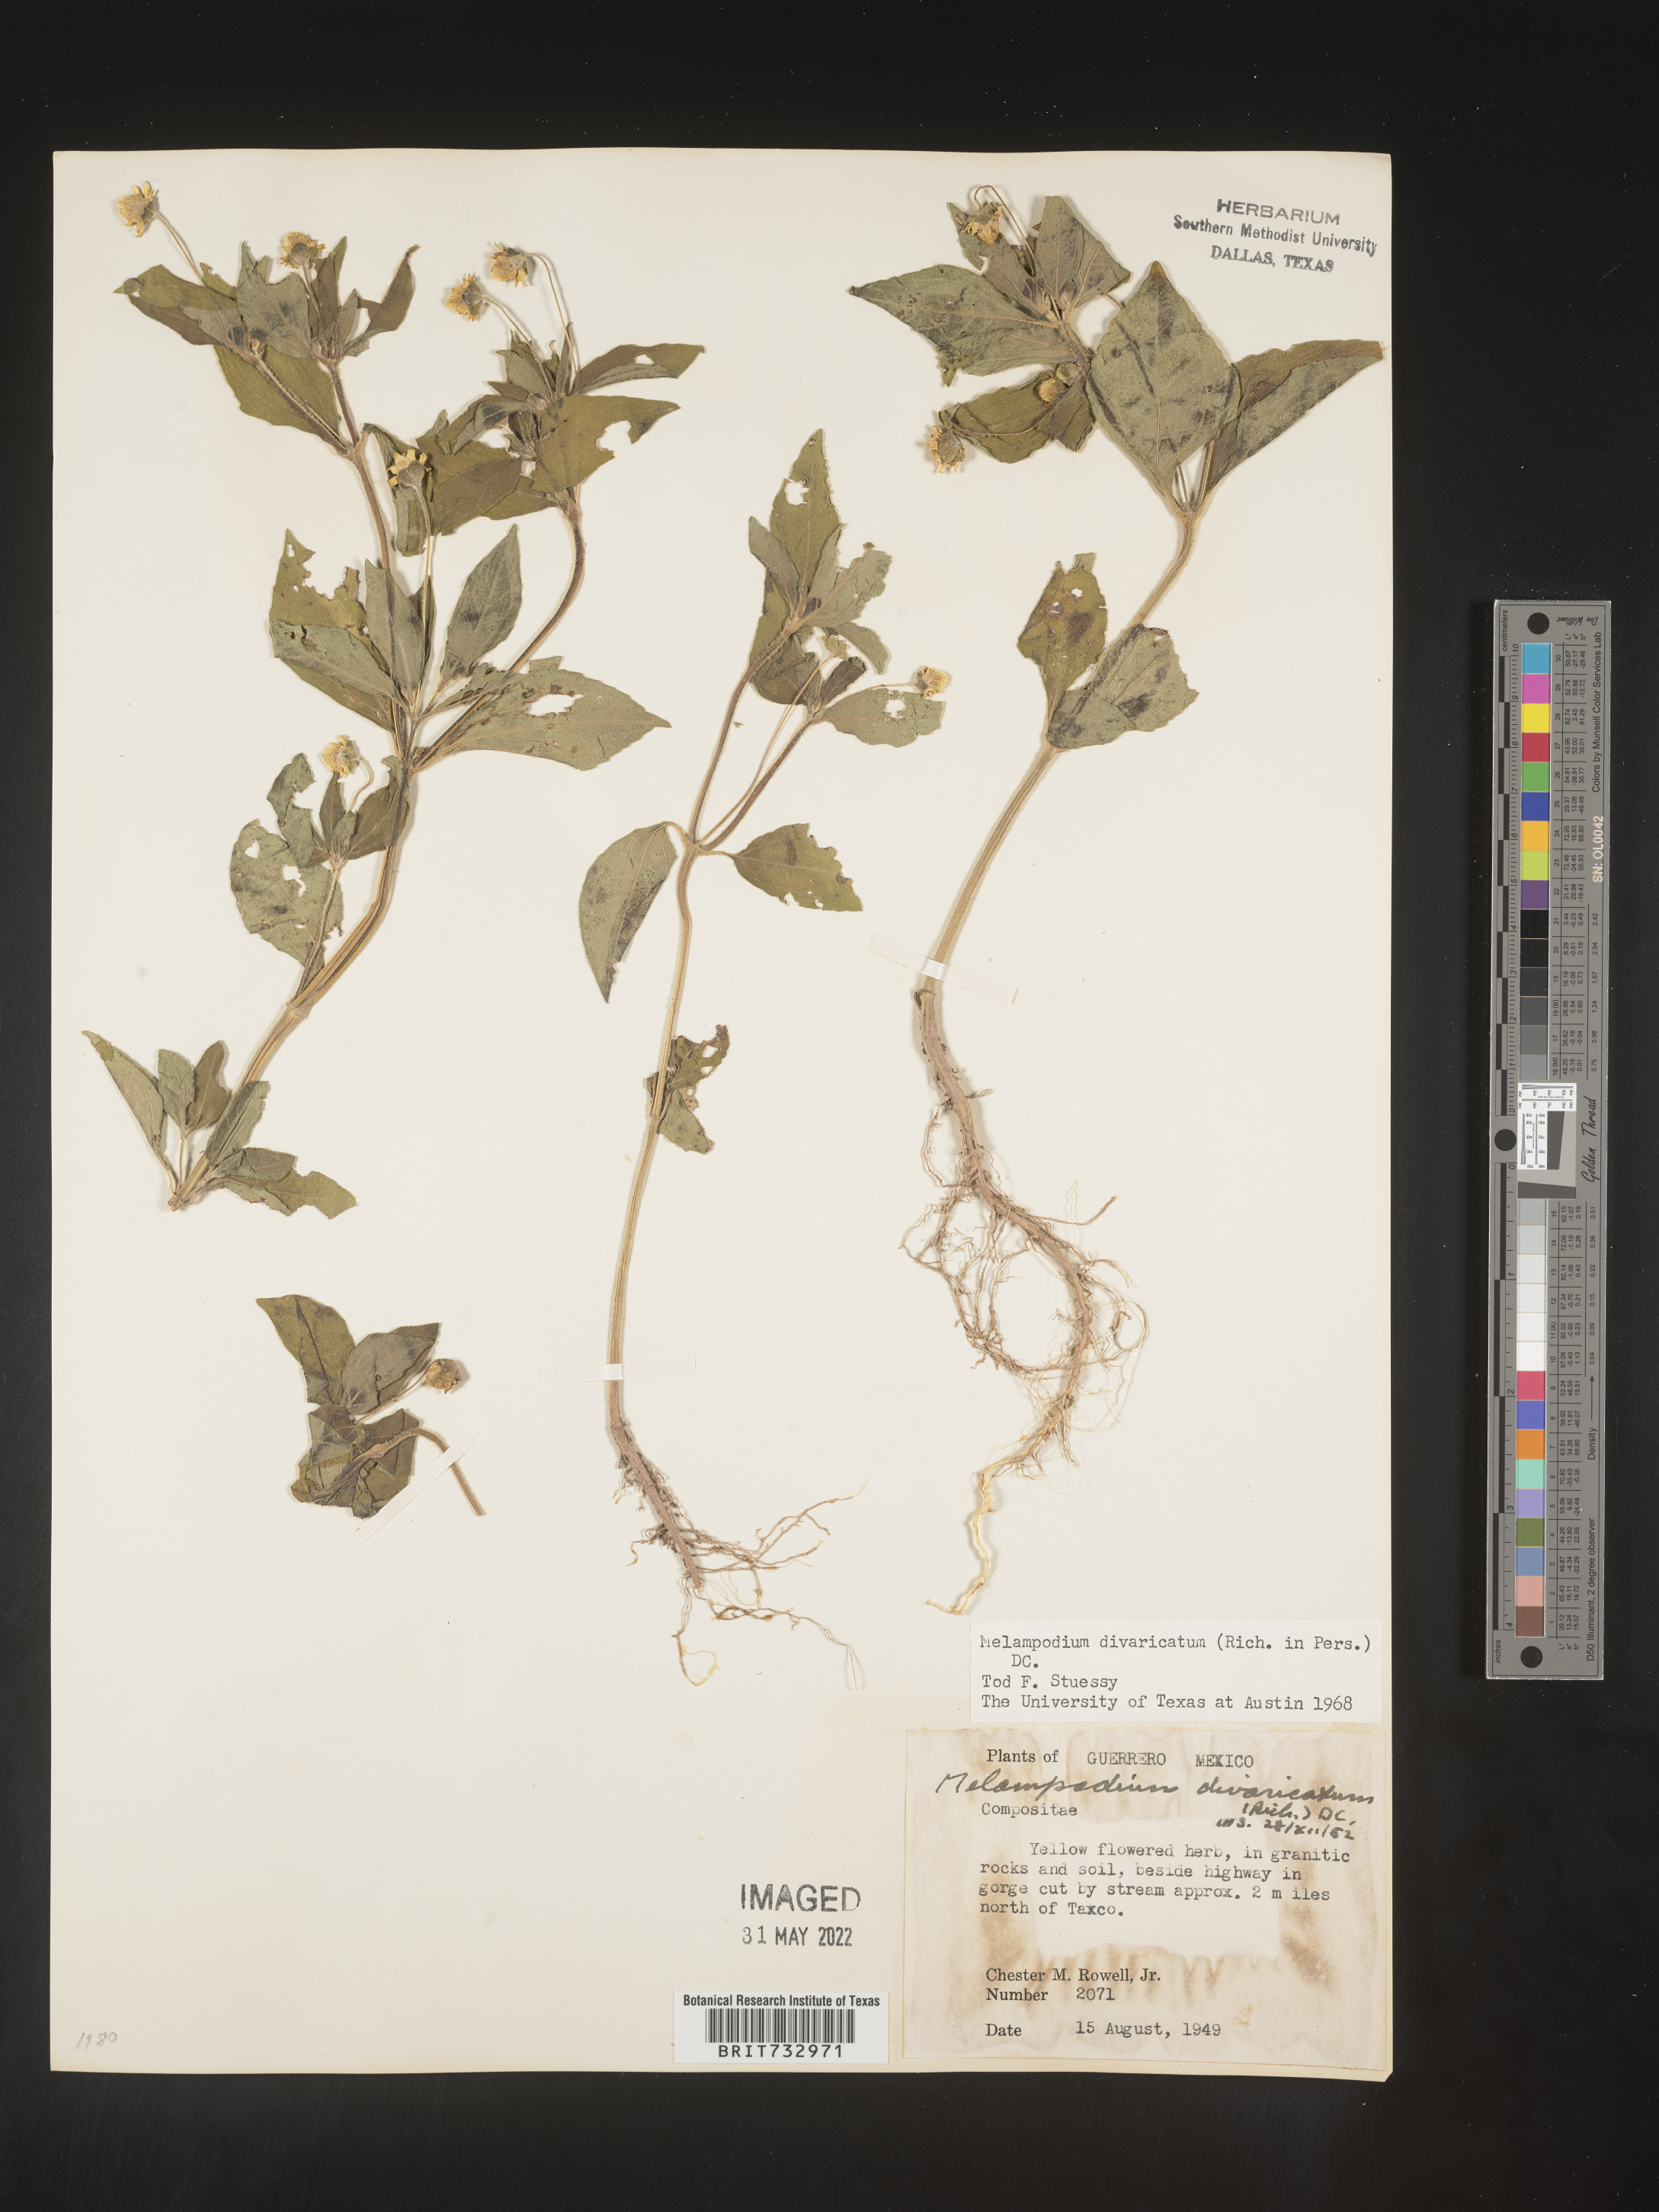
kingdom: Plantae
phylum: Tracheophyta
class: Magnoliopsida
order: Asterales
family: Asteraceae
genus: Melampodium
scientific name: Melampodium
